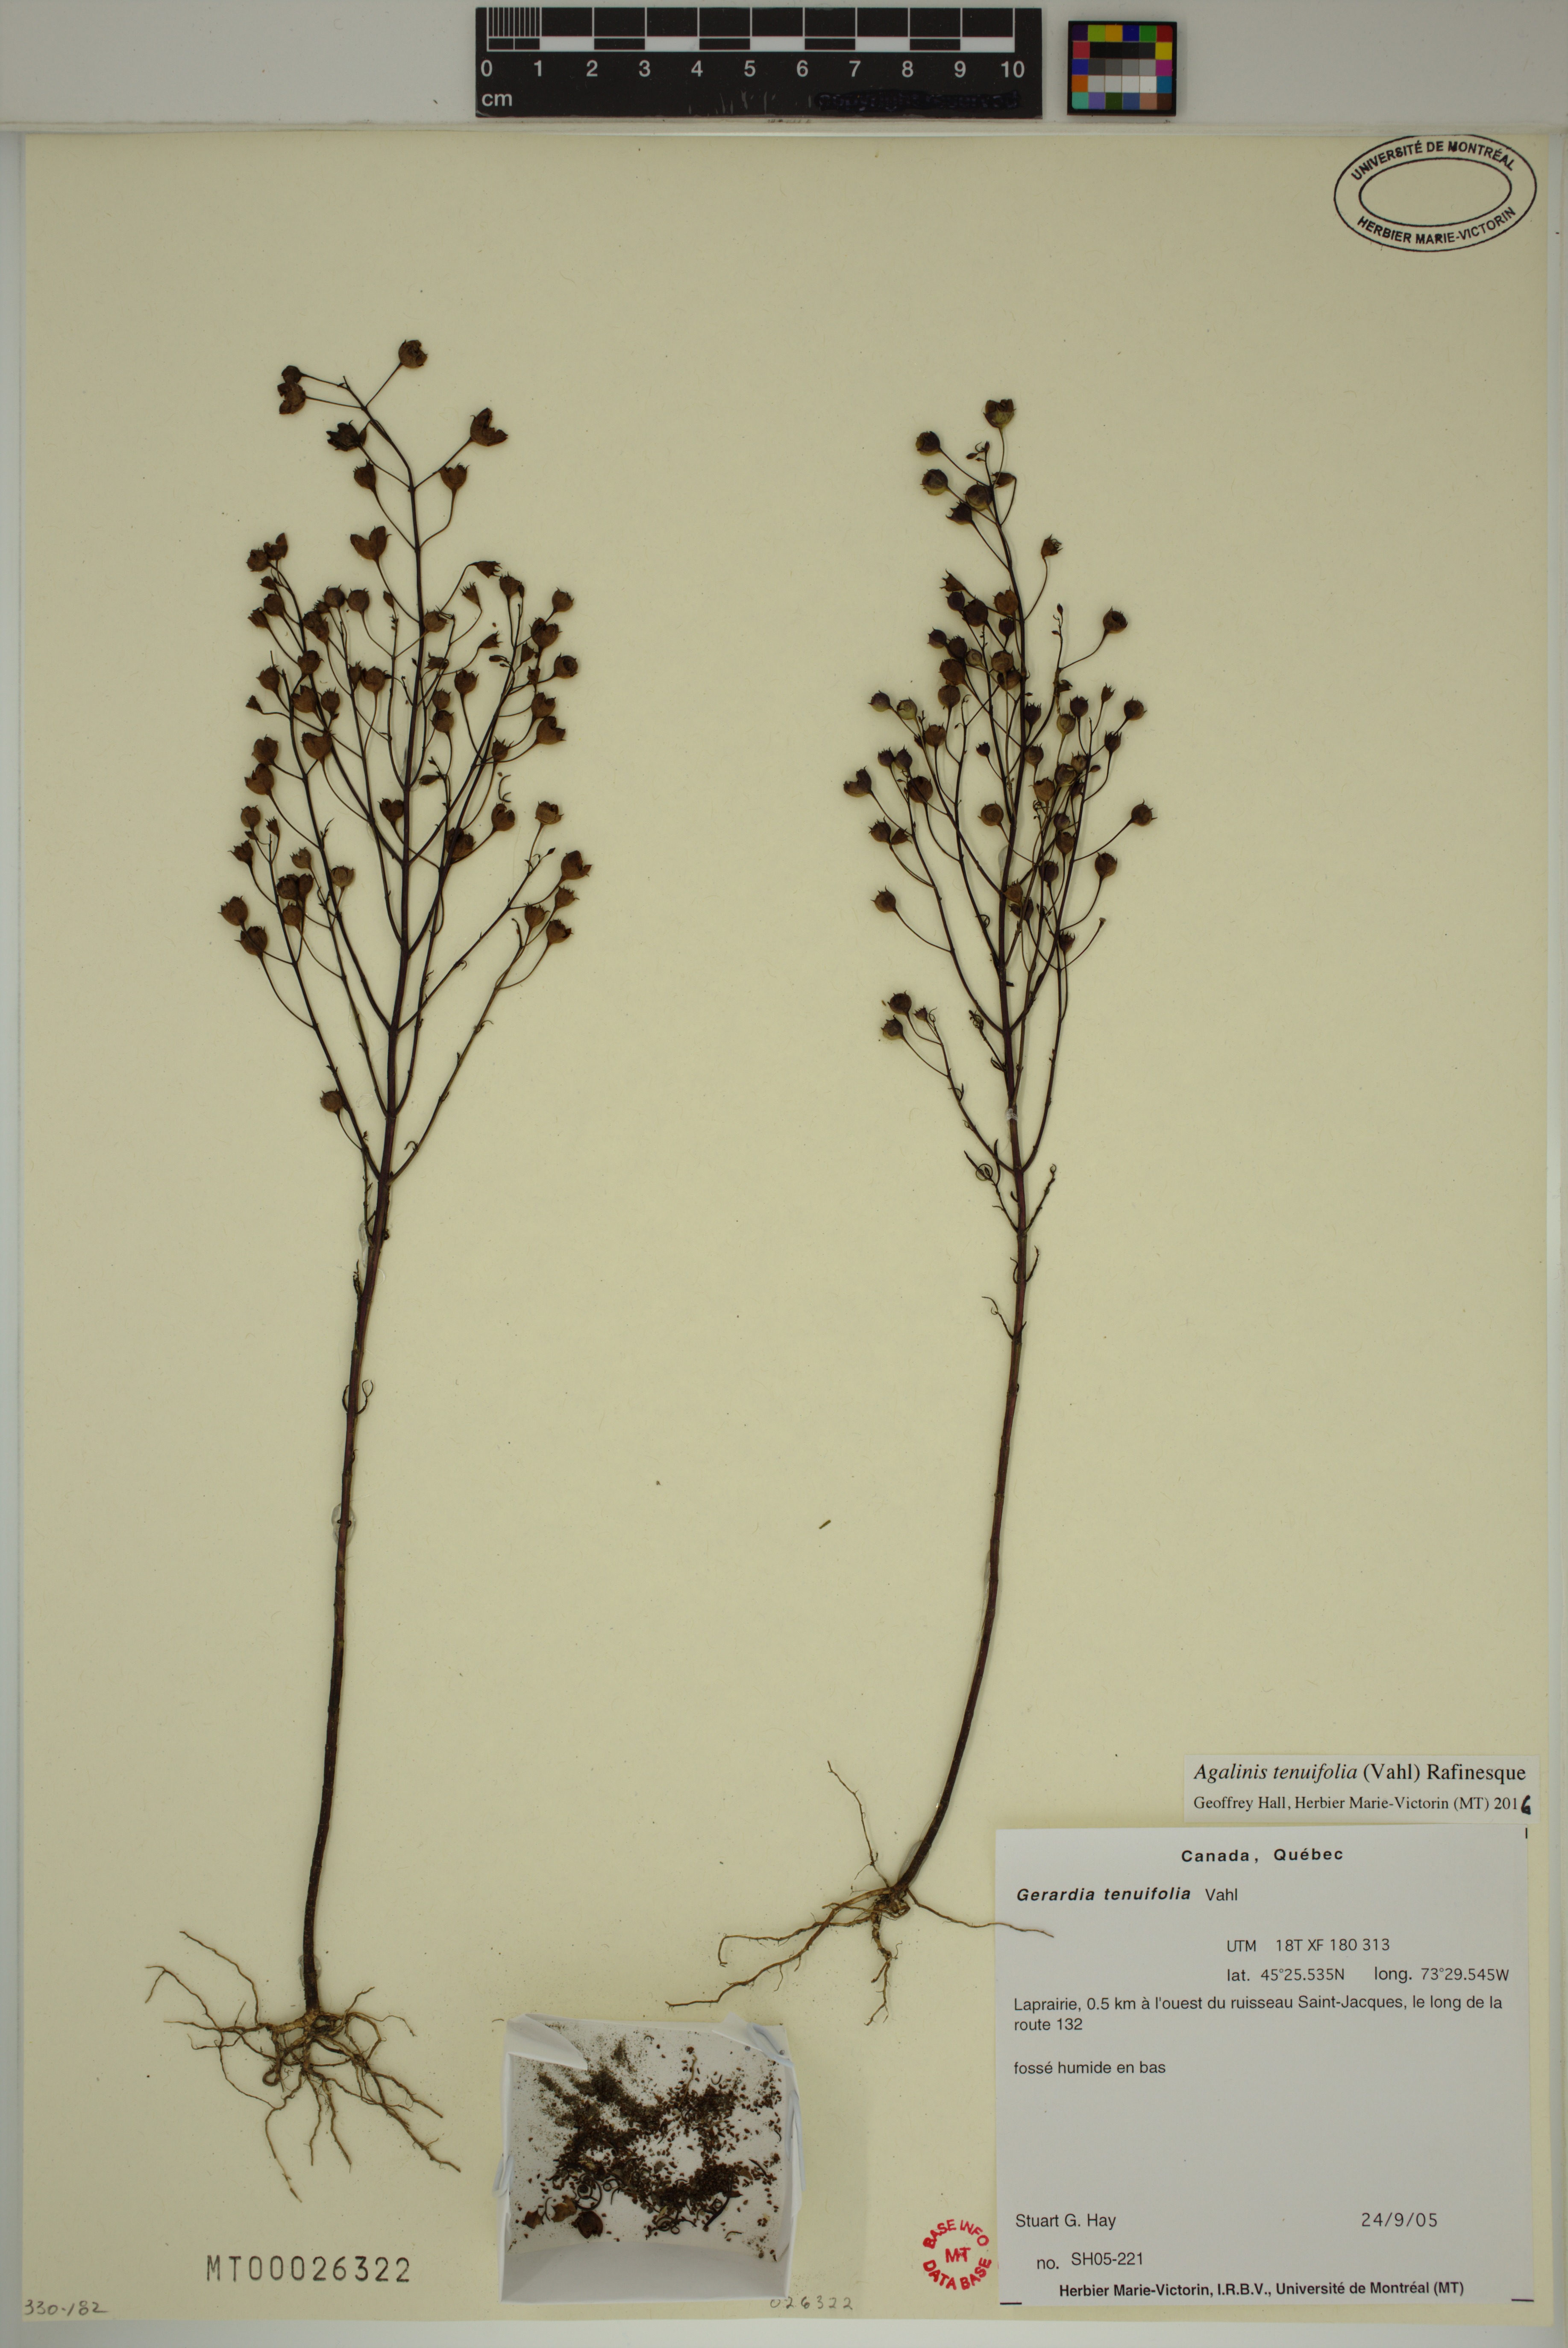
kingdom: Plantae
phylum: Tracheophyta
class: Magnoliopsida
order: Lamiales
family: Orobanchaceae
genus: Agalinis
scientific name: Agalinis tenuifolia
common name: Slender agalinis
